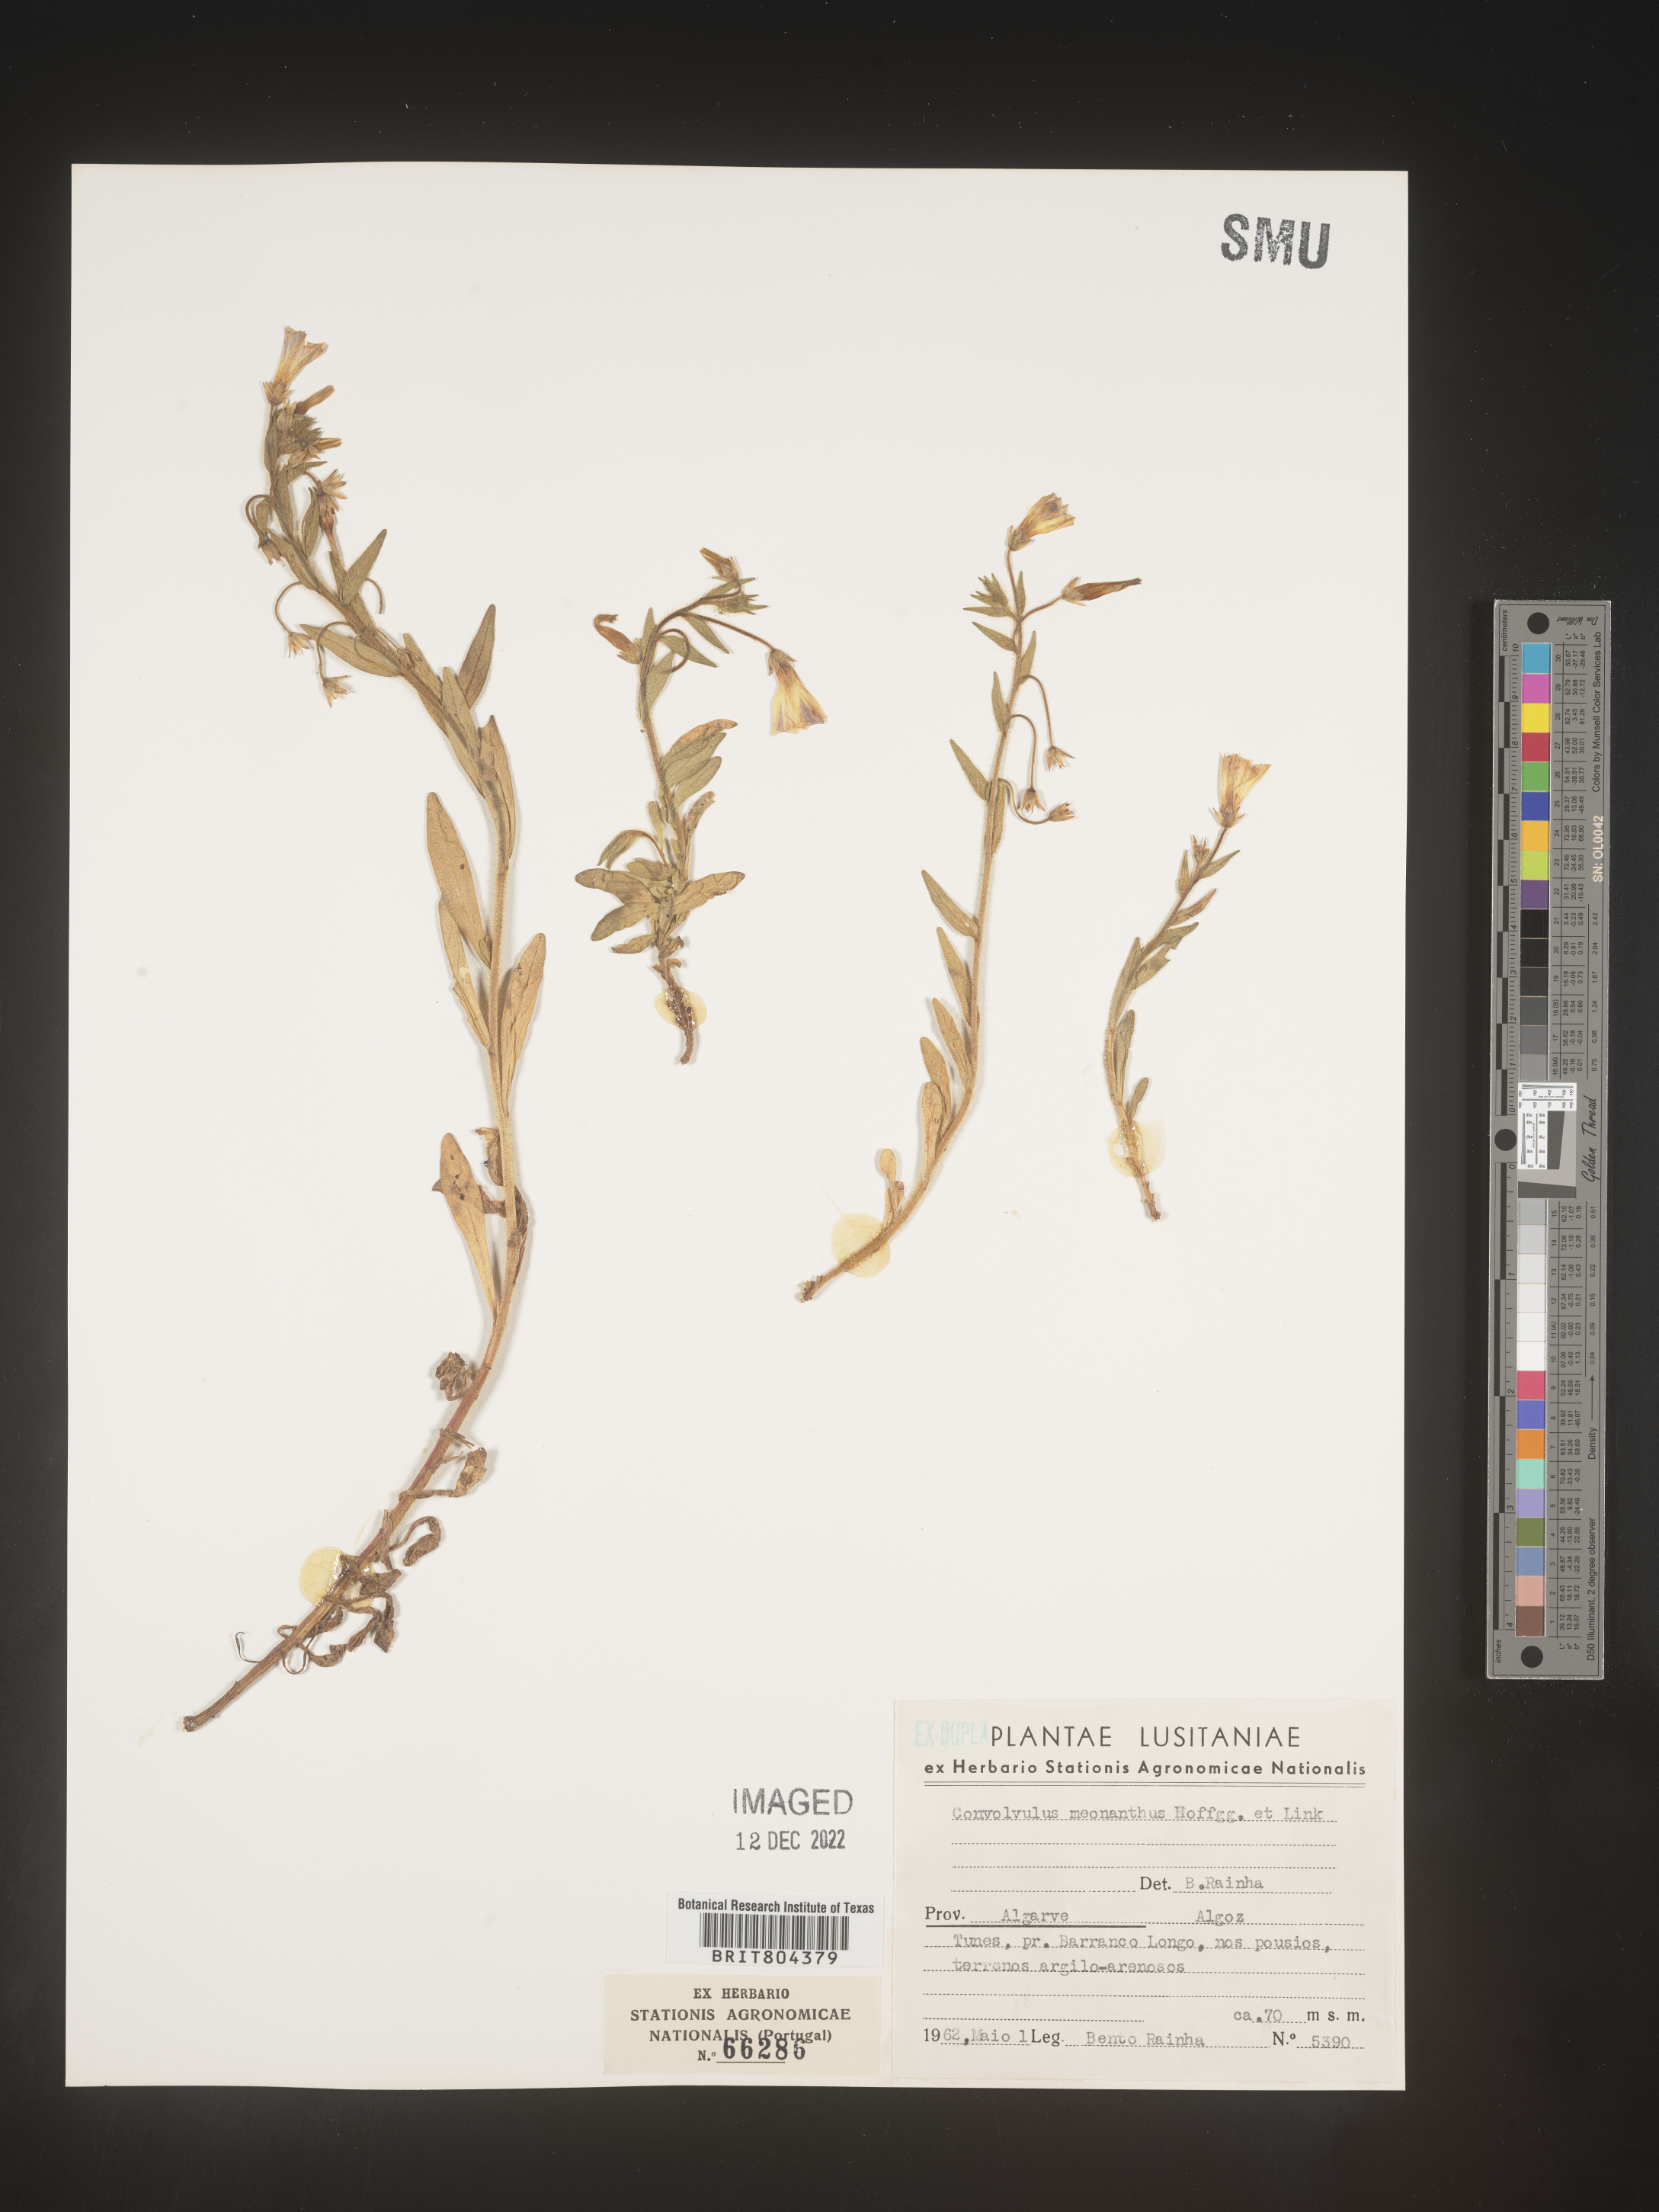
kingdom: Plantae
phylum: Tracheophyta
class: Magnoliopsida
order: Solanales
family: Convolvulaceae
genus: Convolvulus
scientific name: Convolvulus
